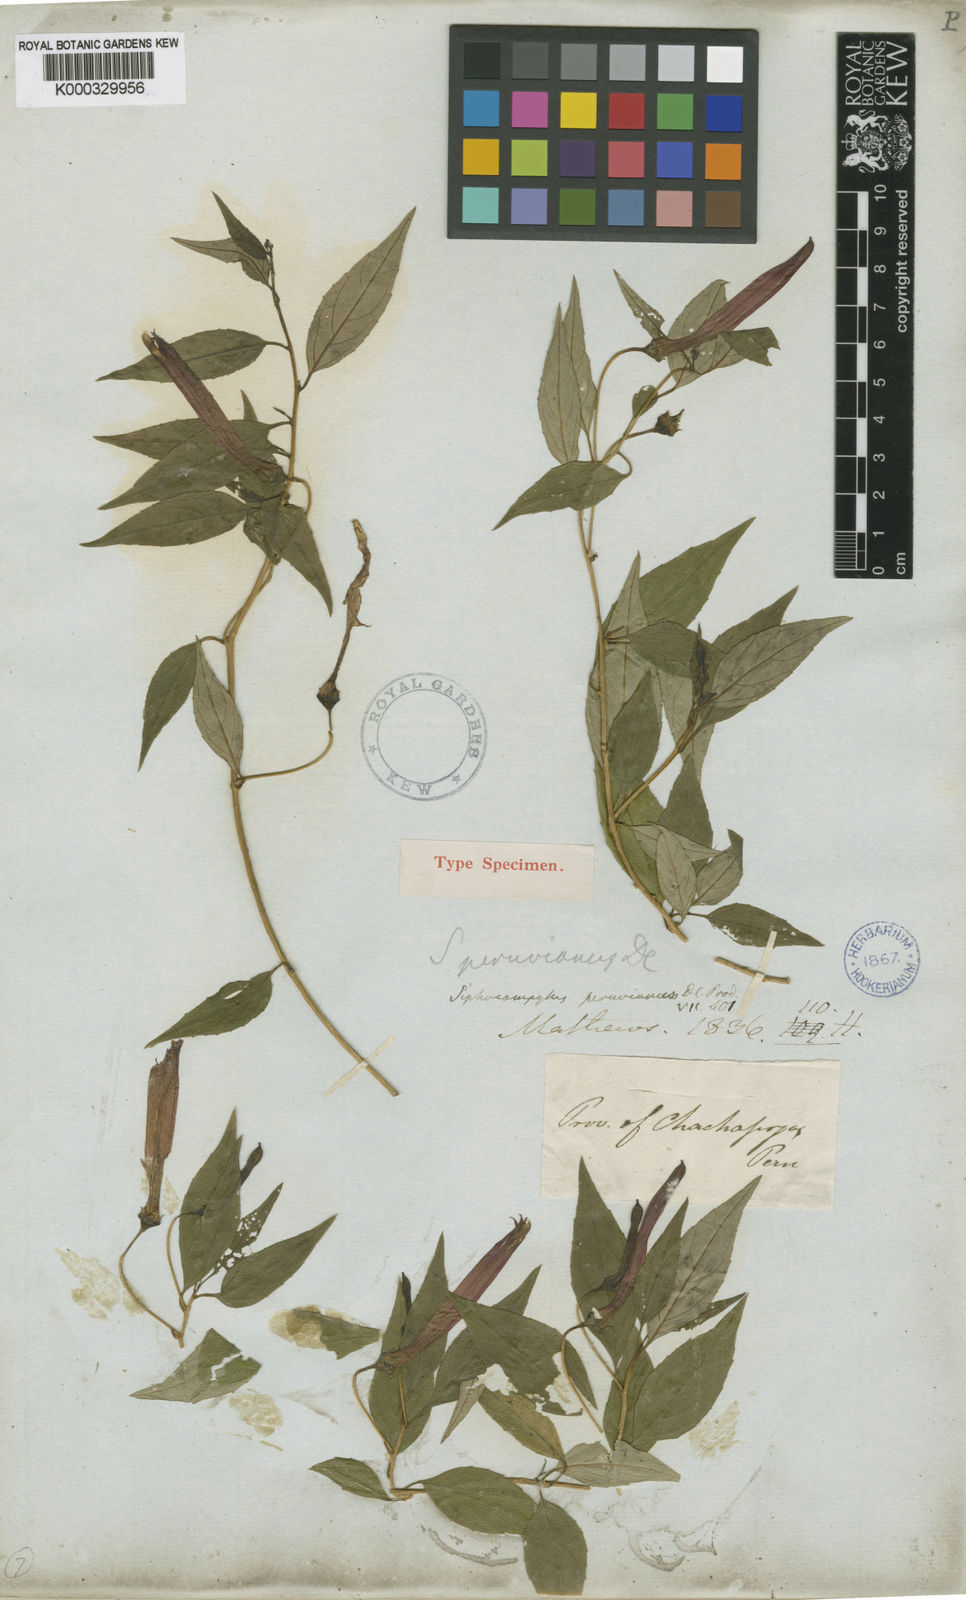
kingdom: Plantae
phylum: Tracheophyta
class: Magnoliopsida
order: Asterales
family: Campanulaceae
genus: Siphocampylus
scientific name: Siphocampylus peruvianus
